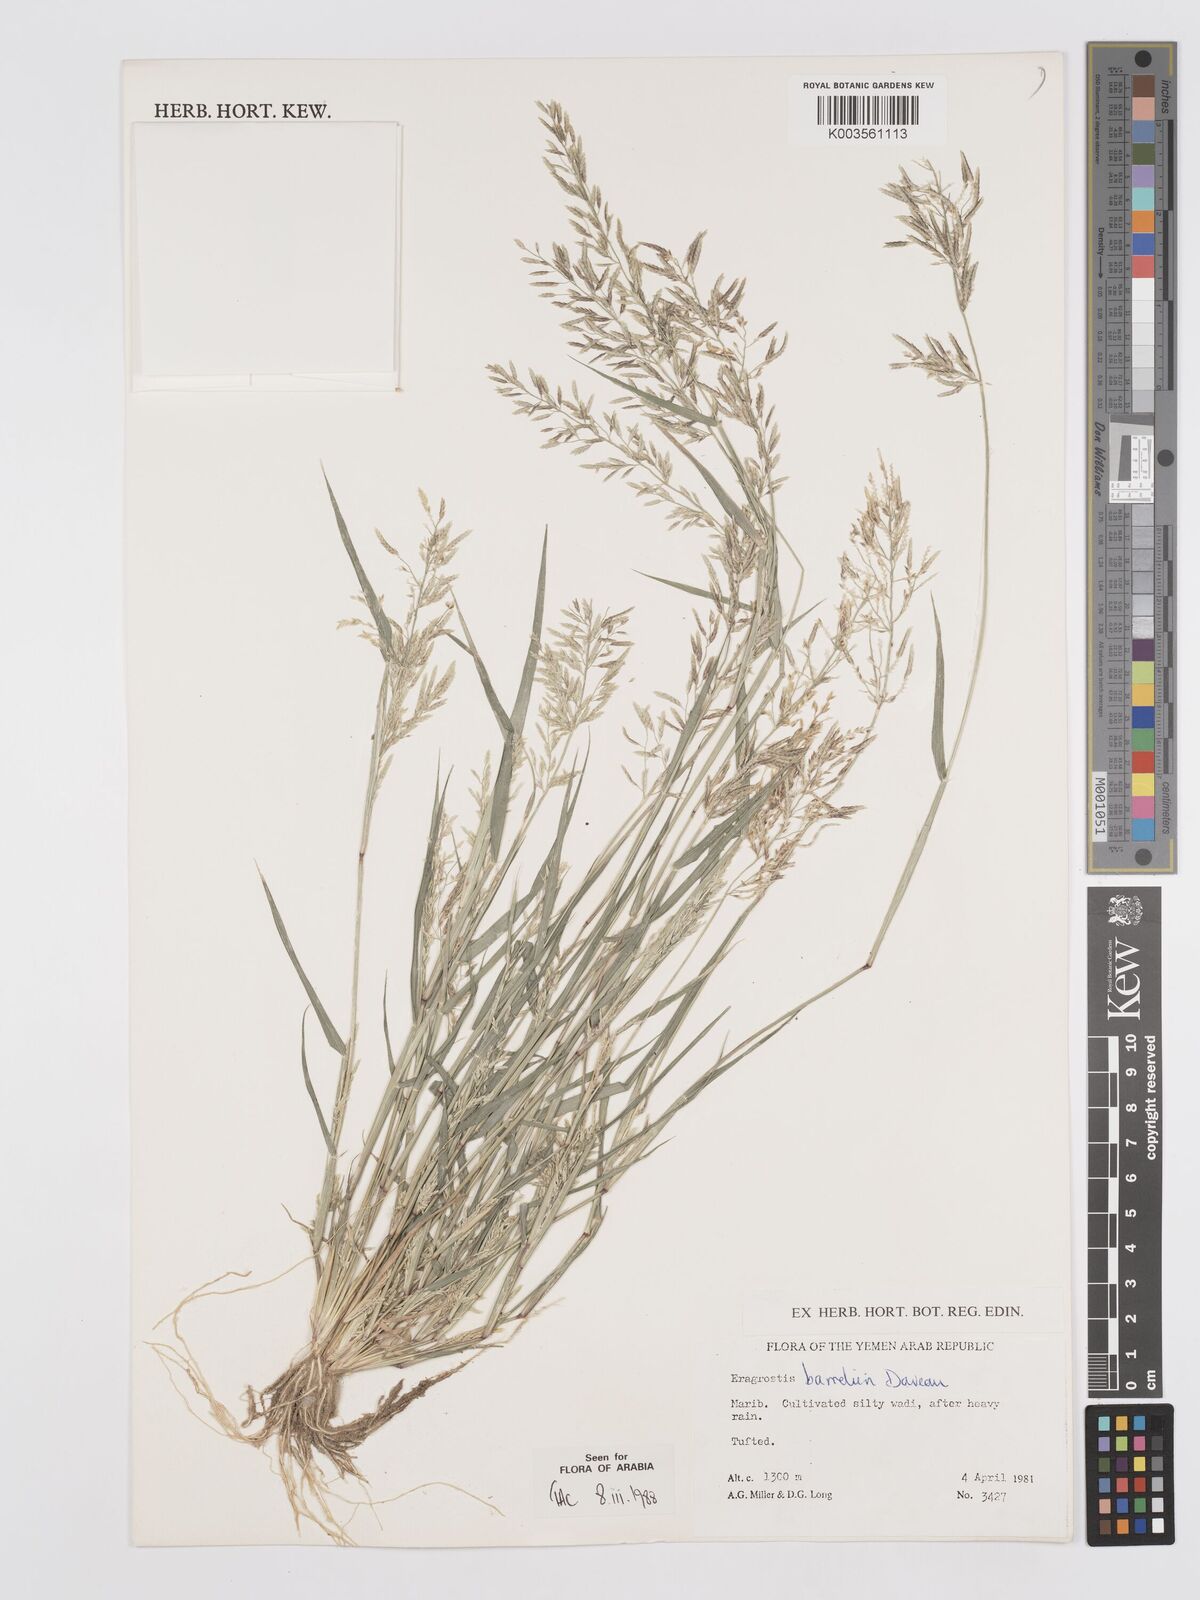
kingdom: Plantae
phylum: Tracheophyta
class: Liliopsida
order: Poales
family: Poaceae
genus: Eragrostis
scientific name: Eragrostis barrelieri
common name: Mediterranean lovegrass
